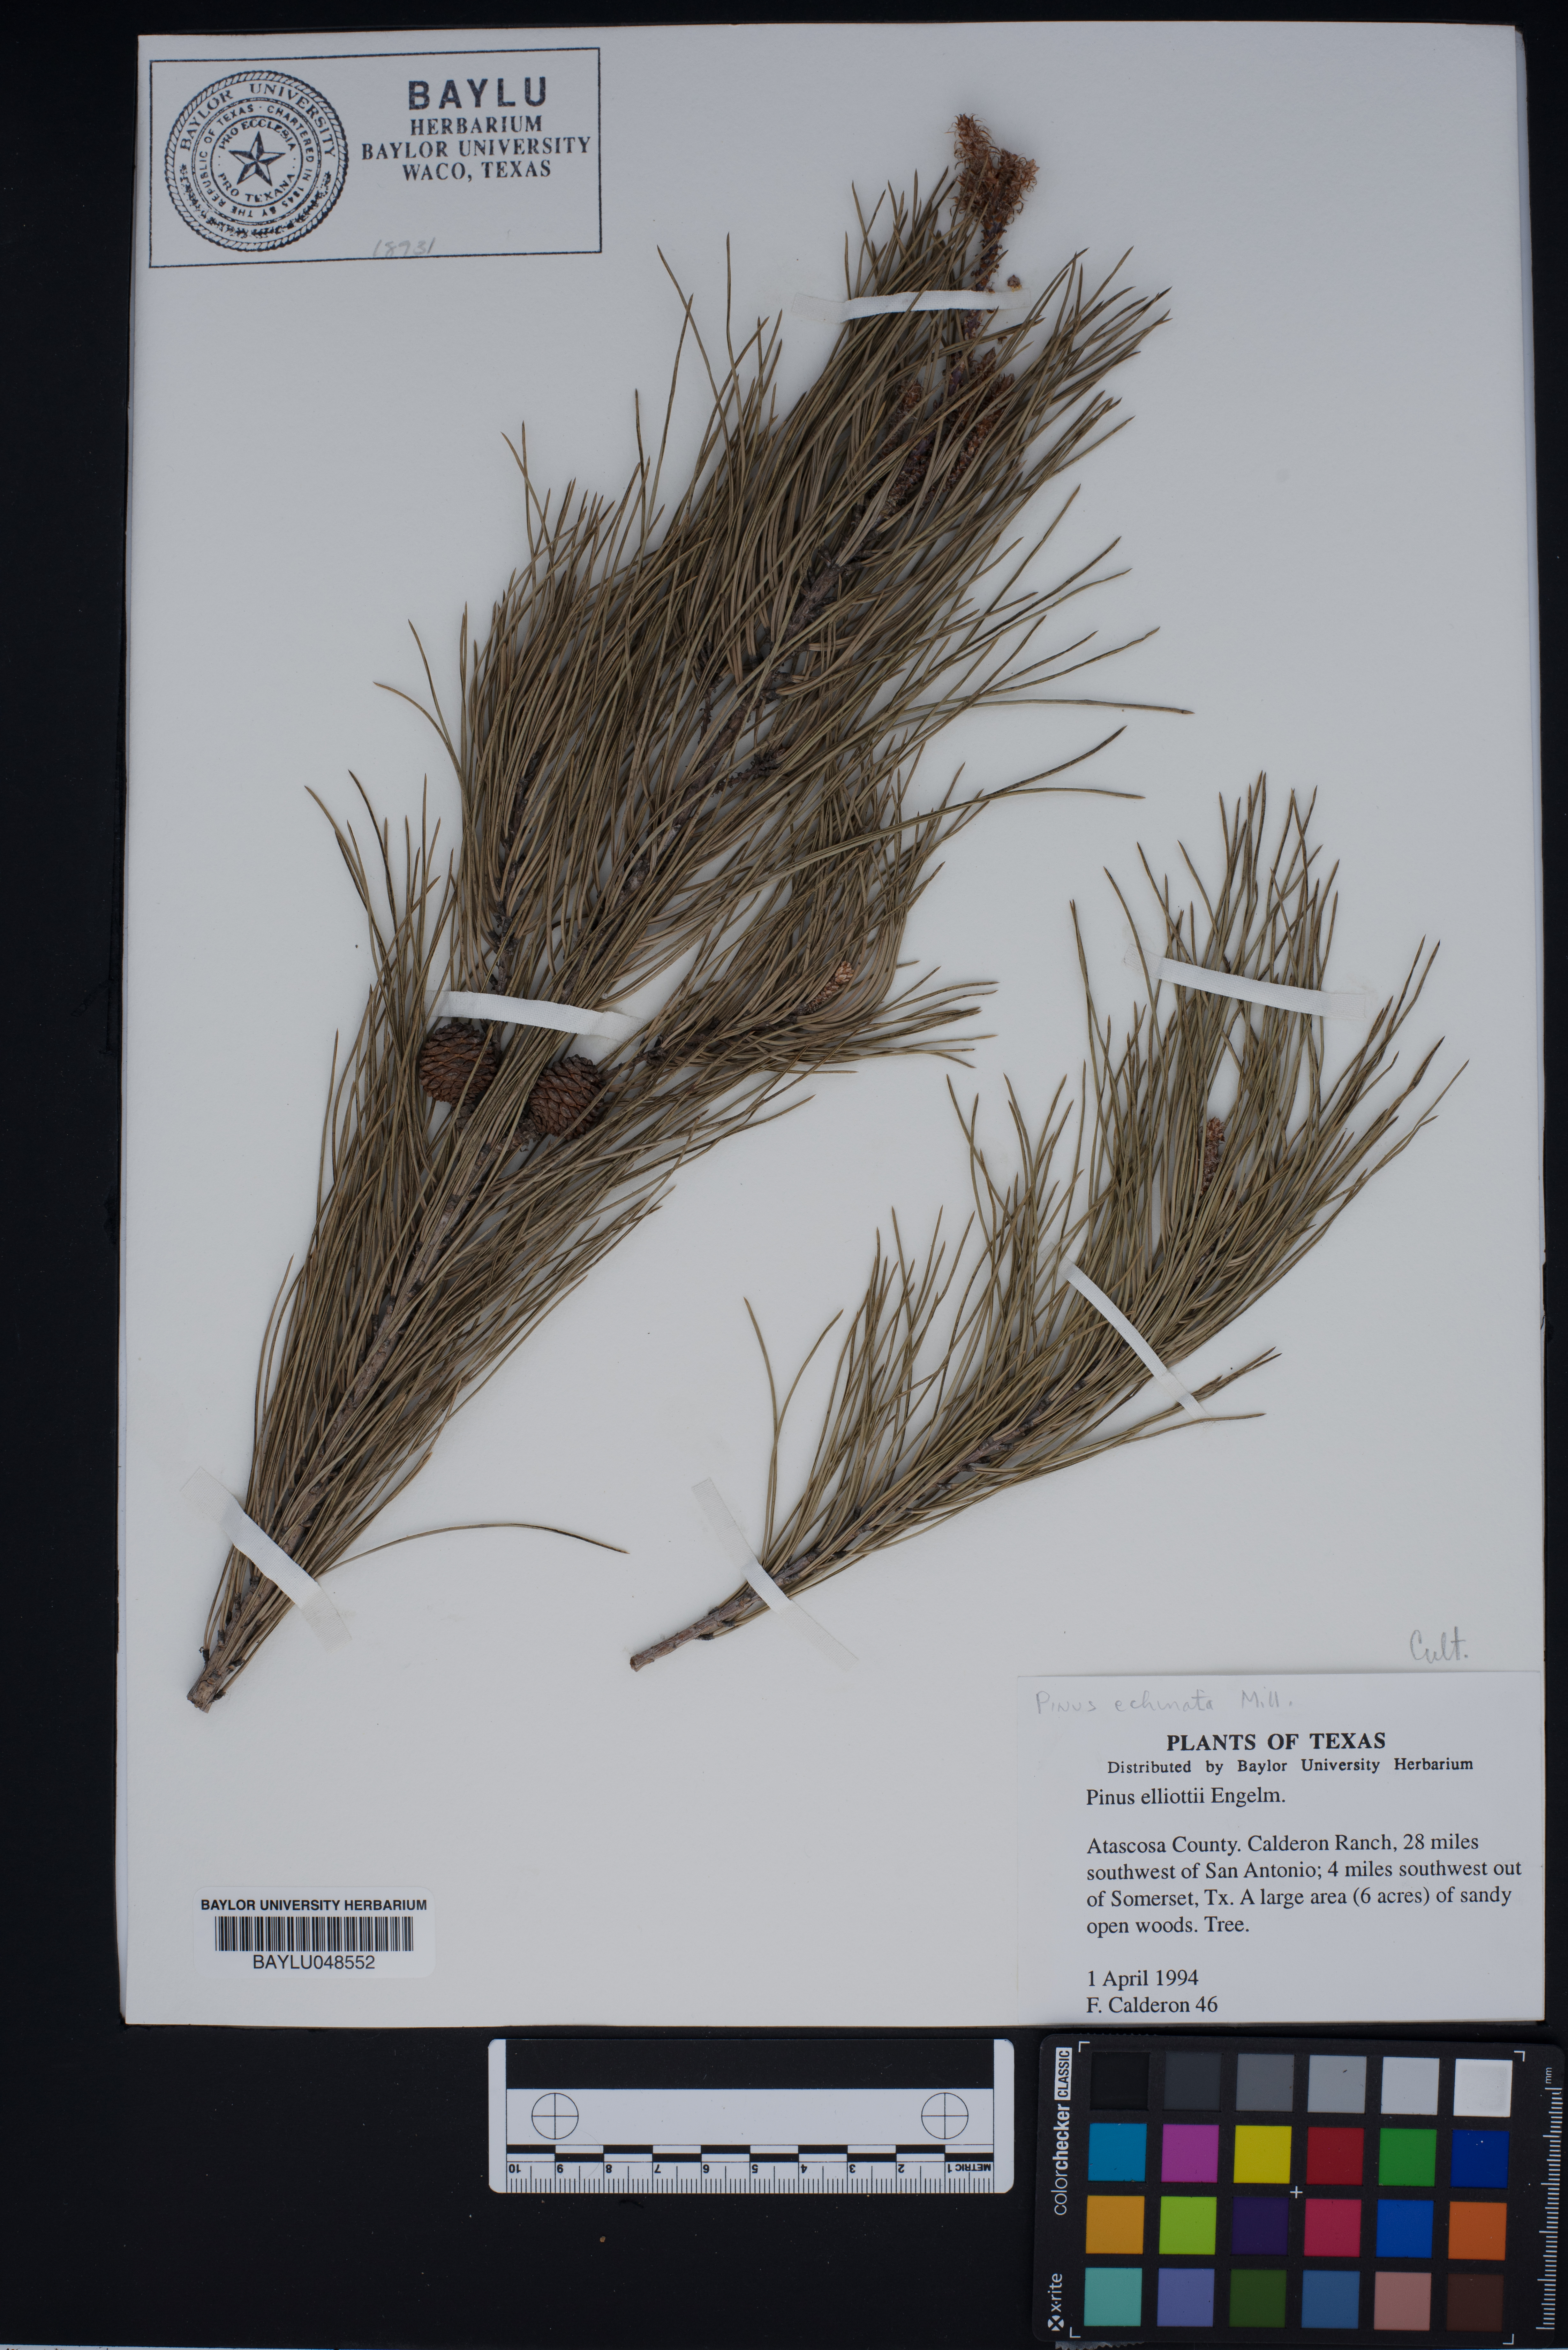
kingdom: Plantae
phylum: Tracheophyta
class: Pinopsida
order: Pinales
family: Pinaceae
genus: Pinus
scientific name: Pinus echinata
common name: Shortleaf pine
